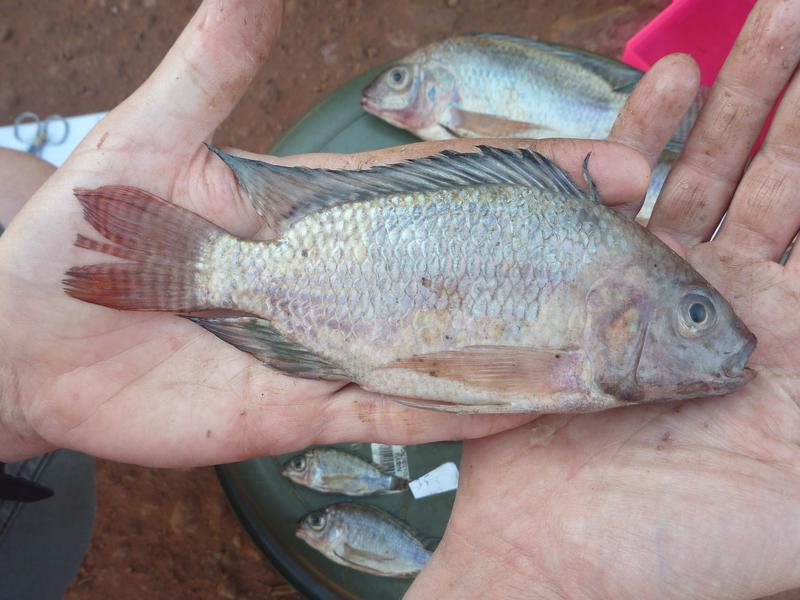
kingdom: Animalia
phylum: Chordata
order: Perciformes
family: Cichlidae
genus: Oreochromis
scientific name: Oreochromis niloticus
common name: Nile tilapia
